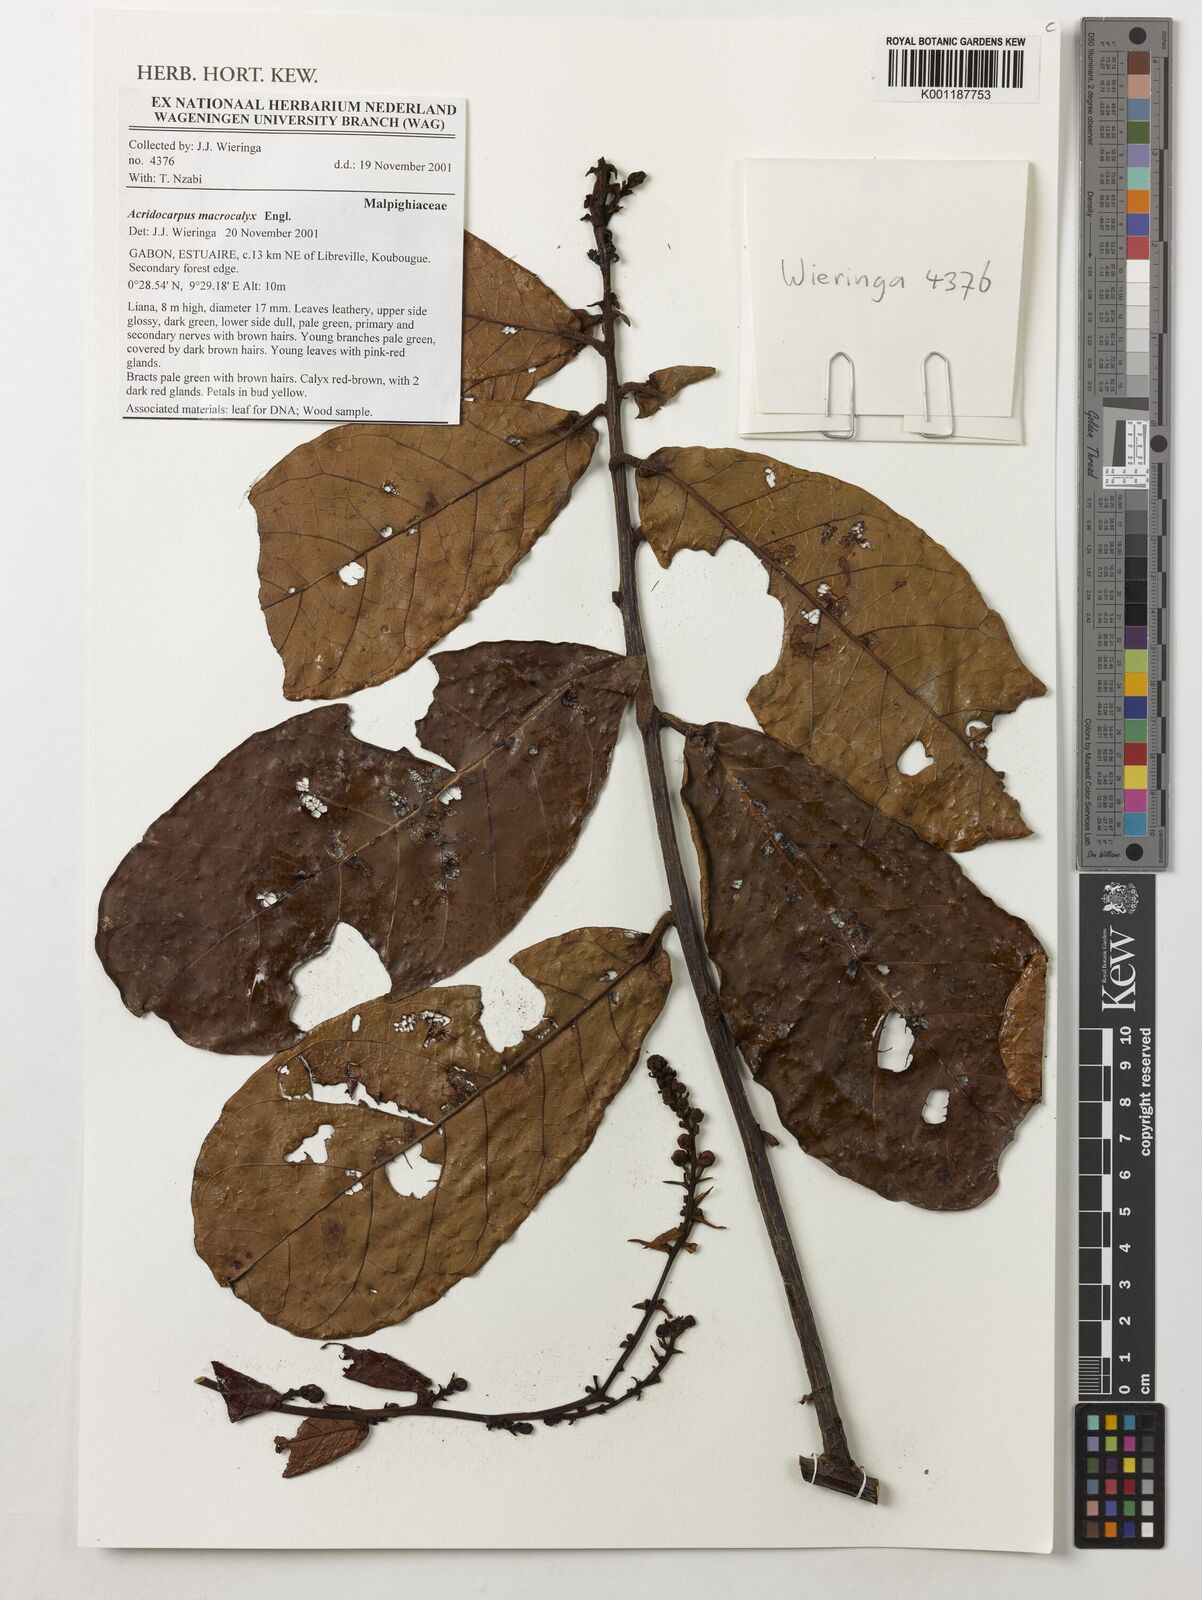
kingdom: Plantae
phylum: Tracheophyta
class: Magnoliopsida
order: Malpighiales
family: Malpighiaceae
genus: Acridocarpus
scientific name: Acridocarpus macrocalyx
